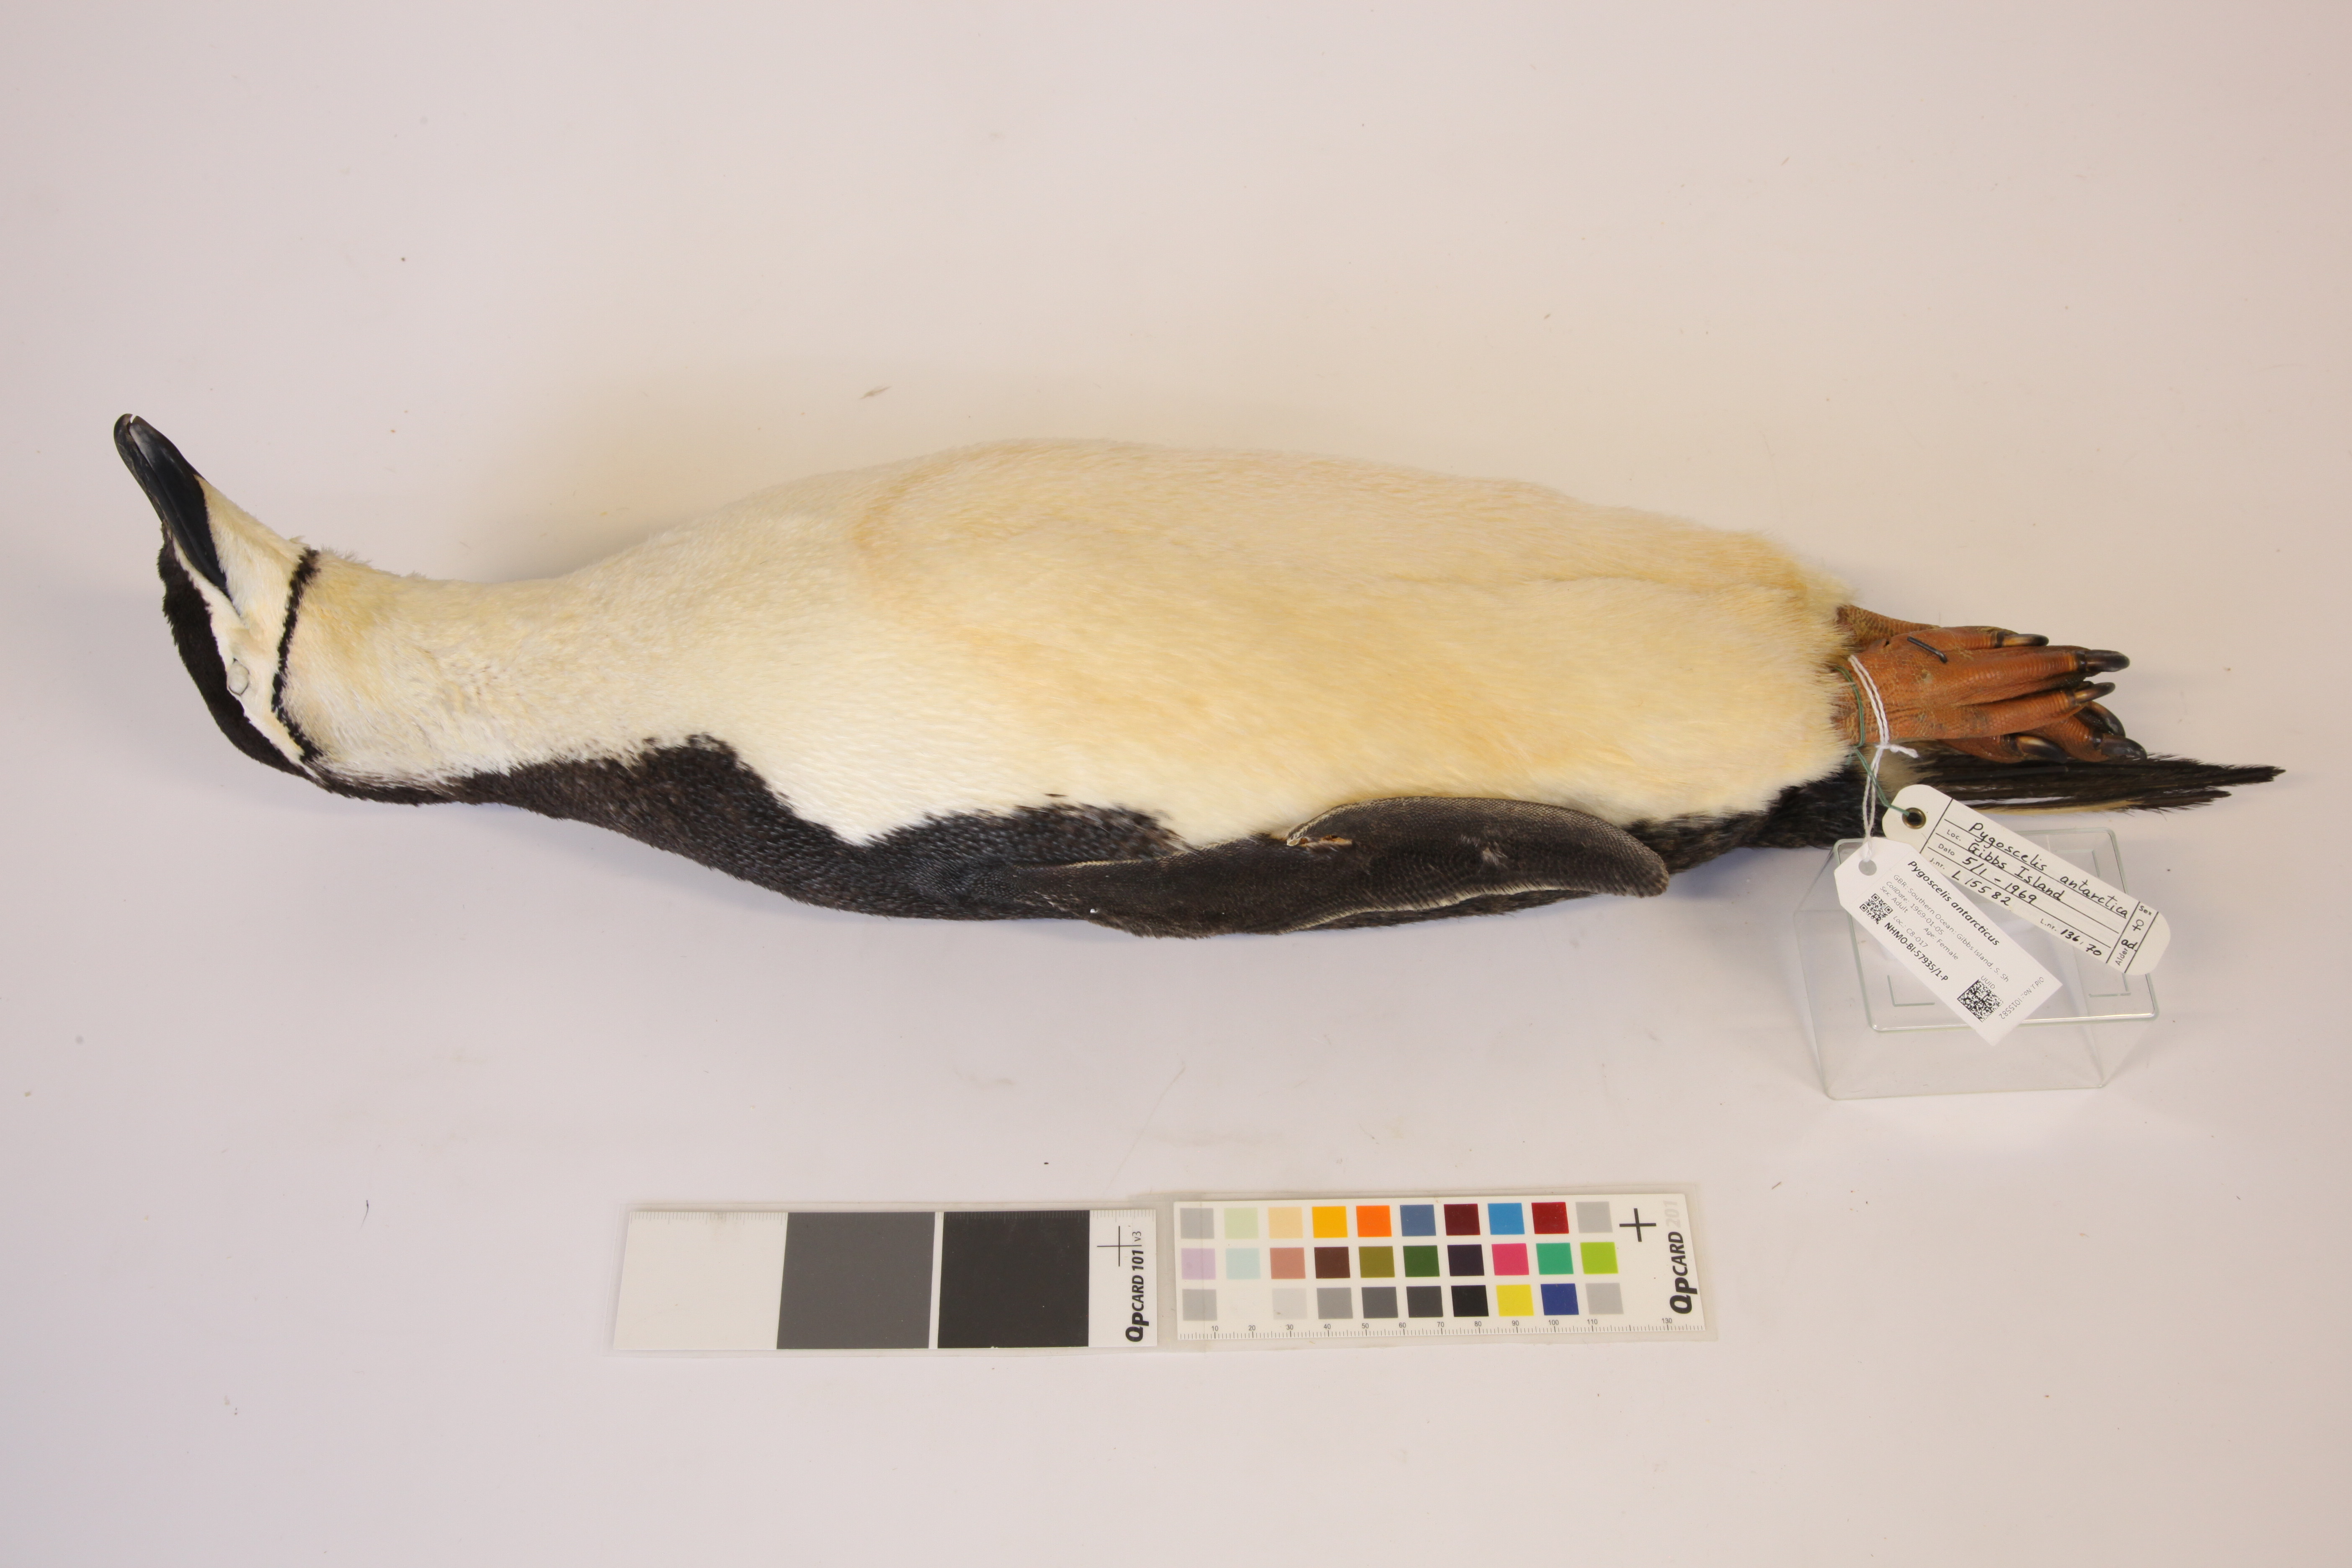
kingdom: Animalia
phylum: Chordata
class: Aves
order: Sphenisciformes
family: Spheniscidae
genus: Pygoscelis
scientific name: Pygoscelis antarcticus
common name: Chinstrap penguin
